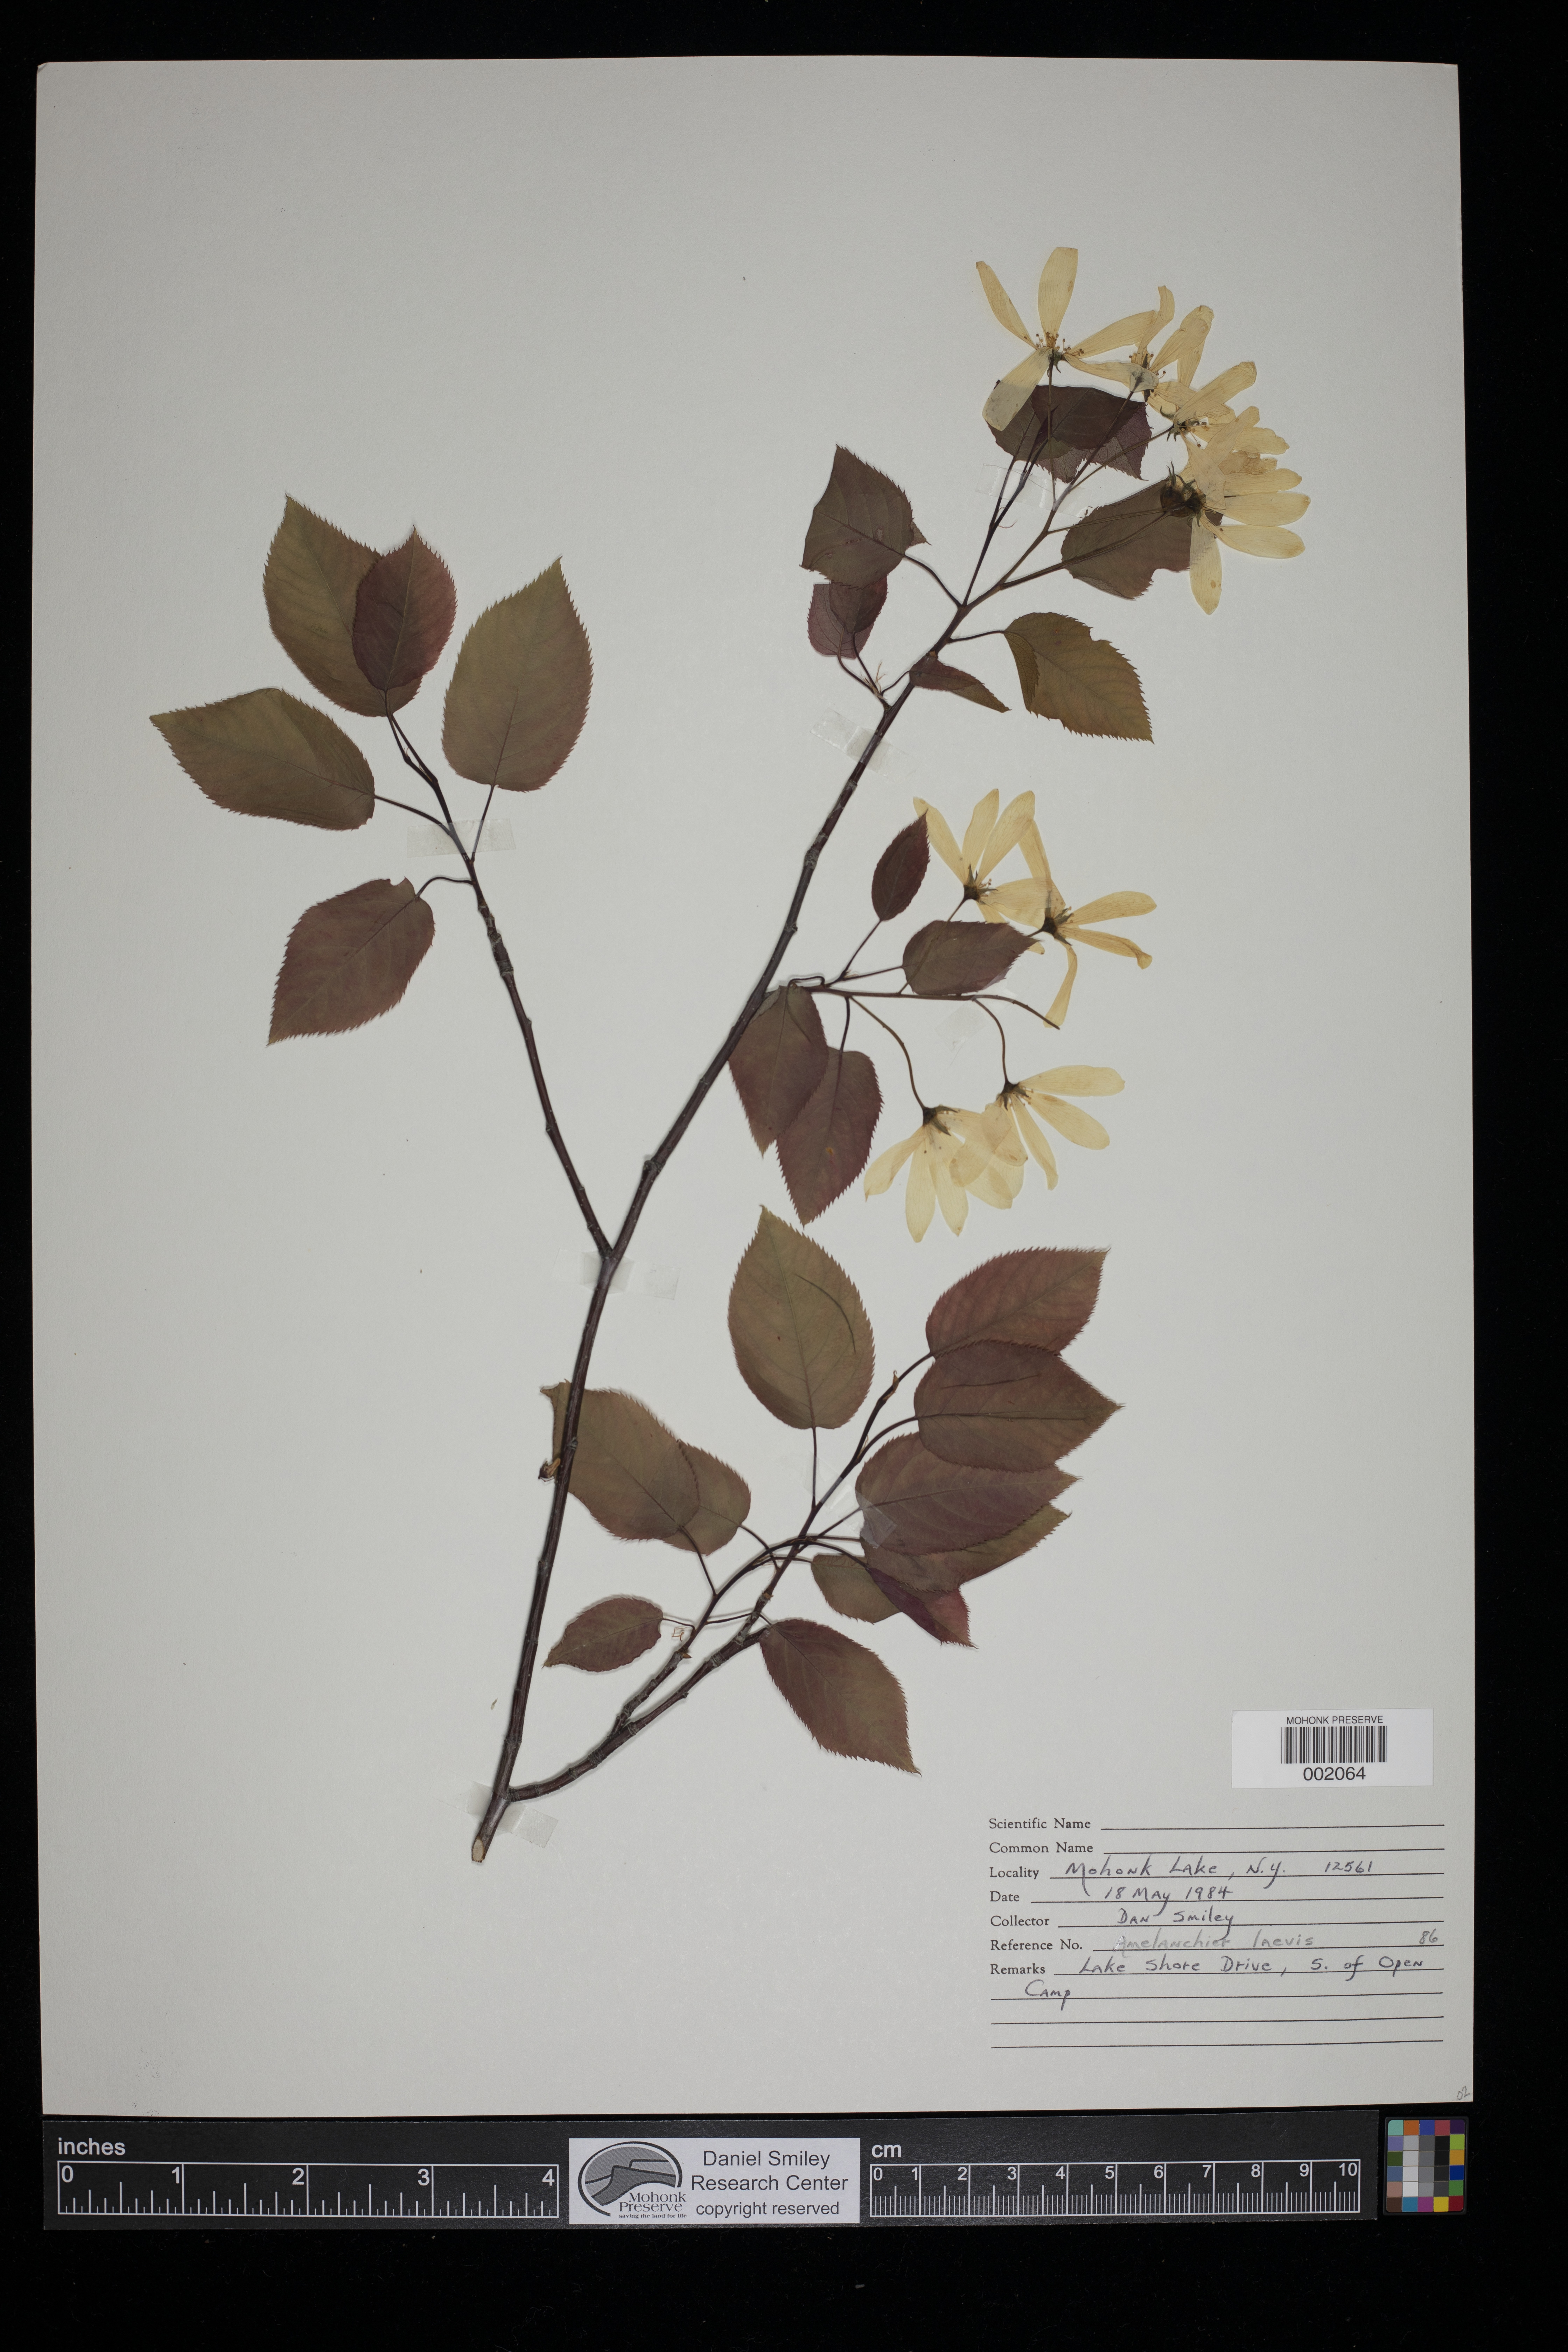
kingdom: Plantae
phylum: Tracheophyta
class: Magnoliopsida
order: Rosales
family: Rosaceae
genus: Amelanchier
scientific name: Amelanchier laevis
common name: Allegheny serviceberry
